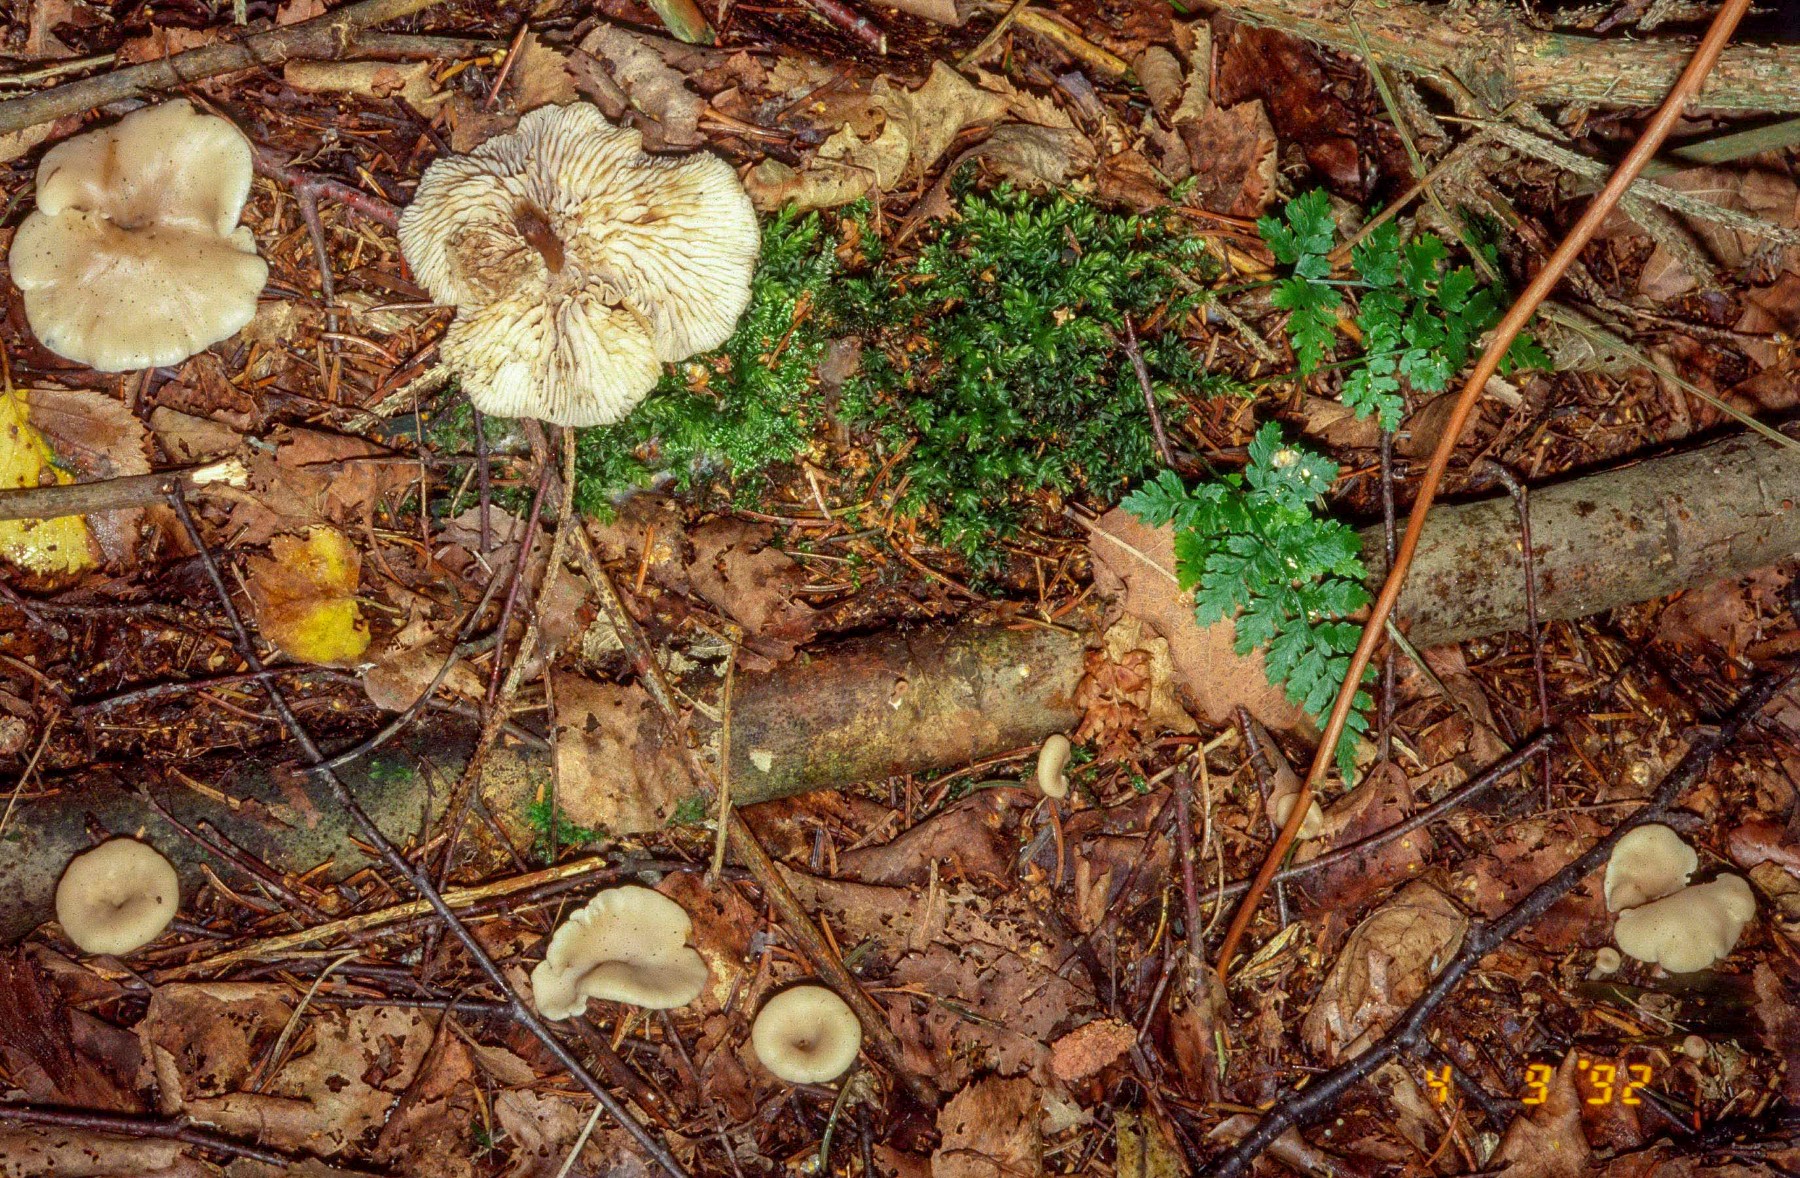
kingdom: Fungi
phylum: Basidiomycota
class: Agaricomycetes
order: Russulales
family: Auriscalpiaceae
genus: Lentinellus
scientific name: Lentinellus flabelliformis
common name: navle-savbladhat
